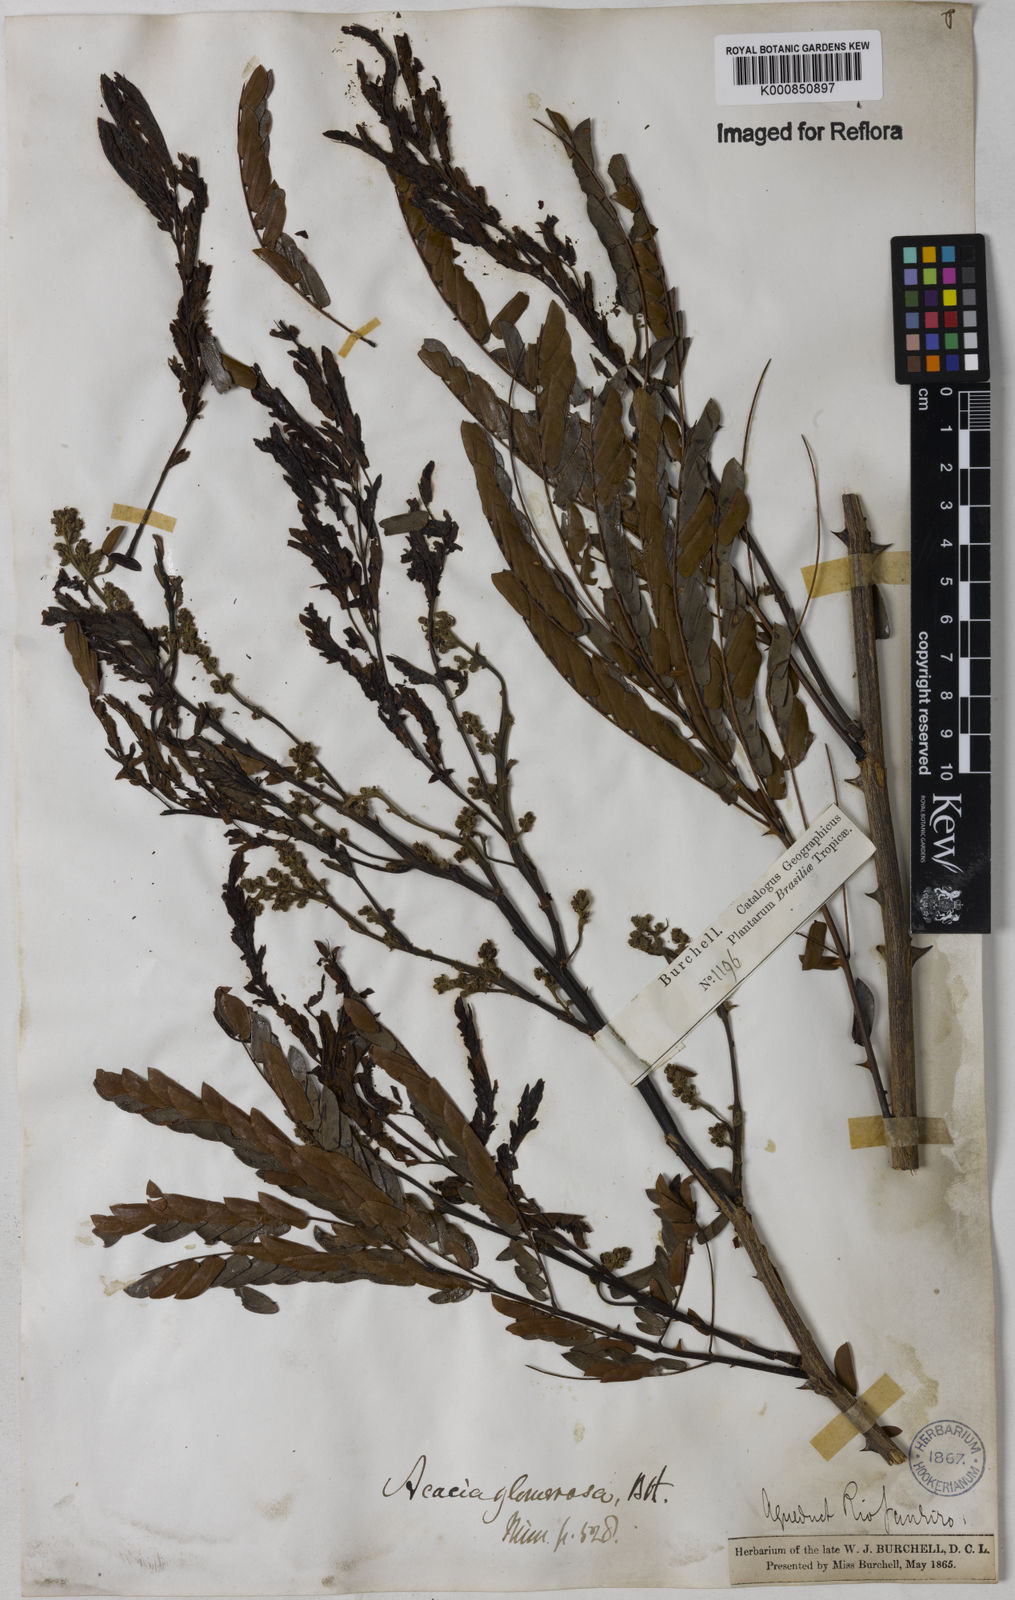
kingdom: Plantae
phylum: Tracheophyta
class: Magnoliopsida
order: Fabales
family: Fabaceae
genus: Senegalia
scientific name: Senegalia polyphylla
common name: White-tamarind
